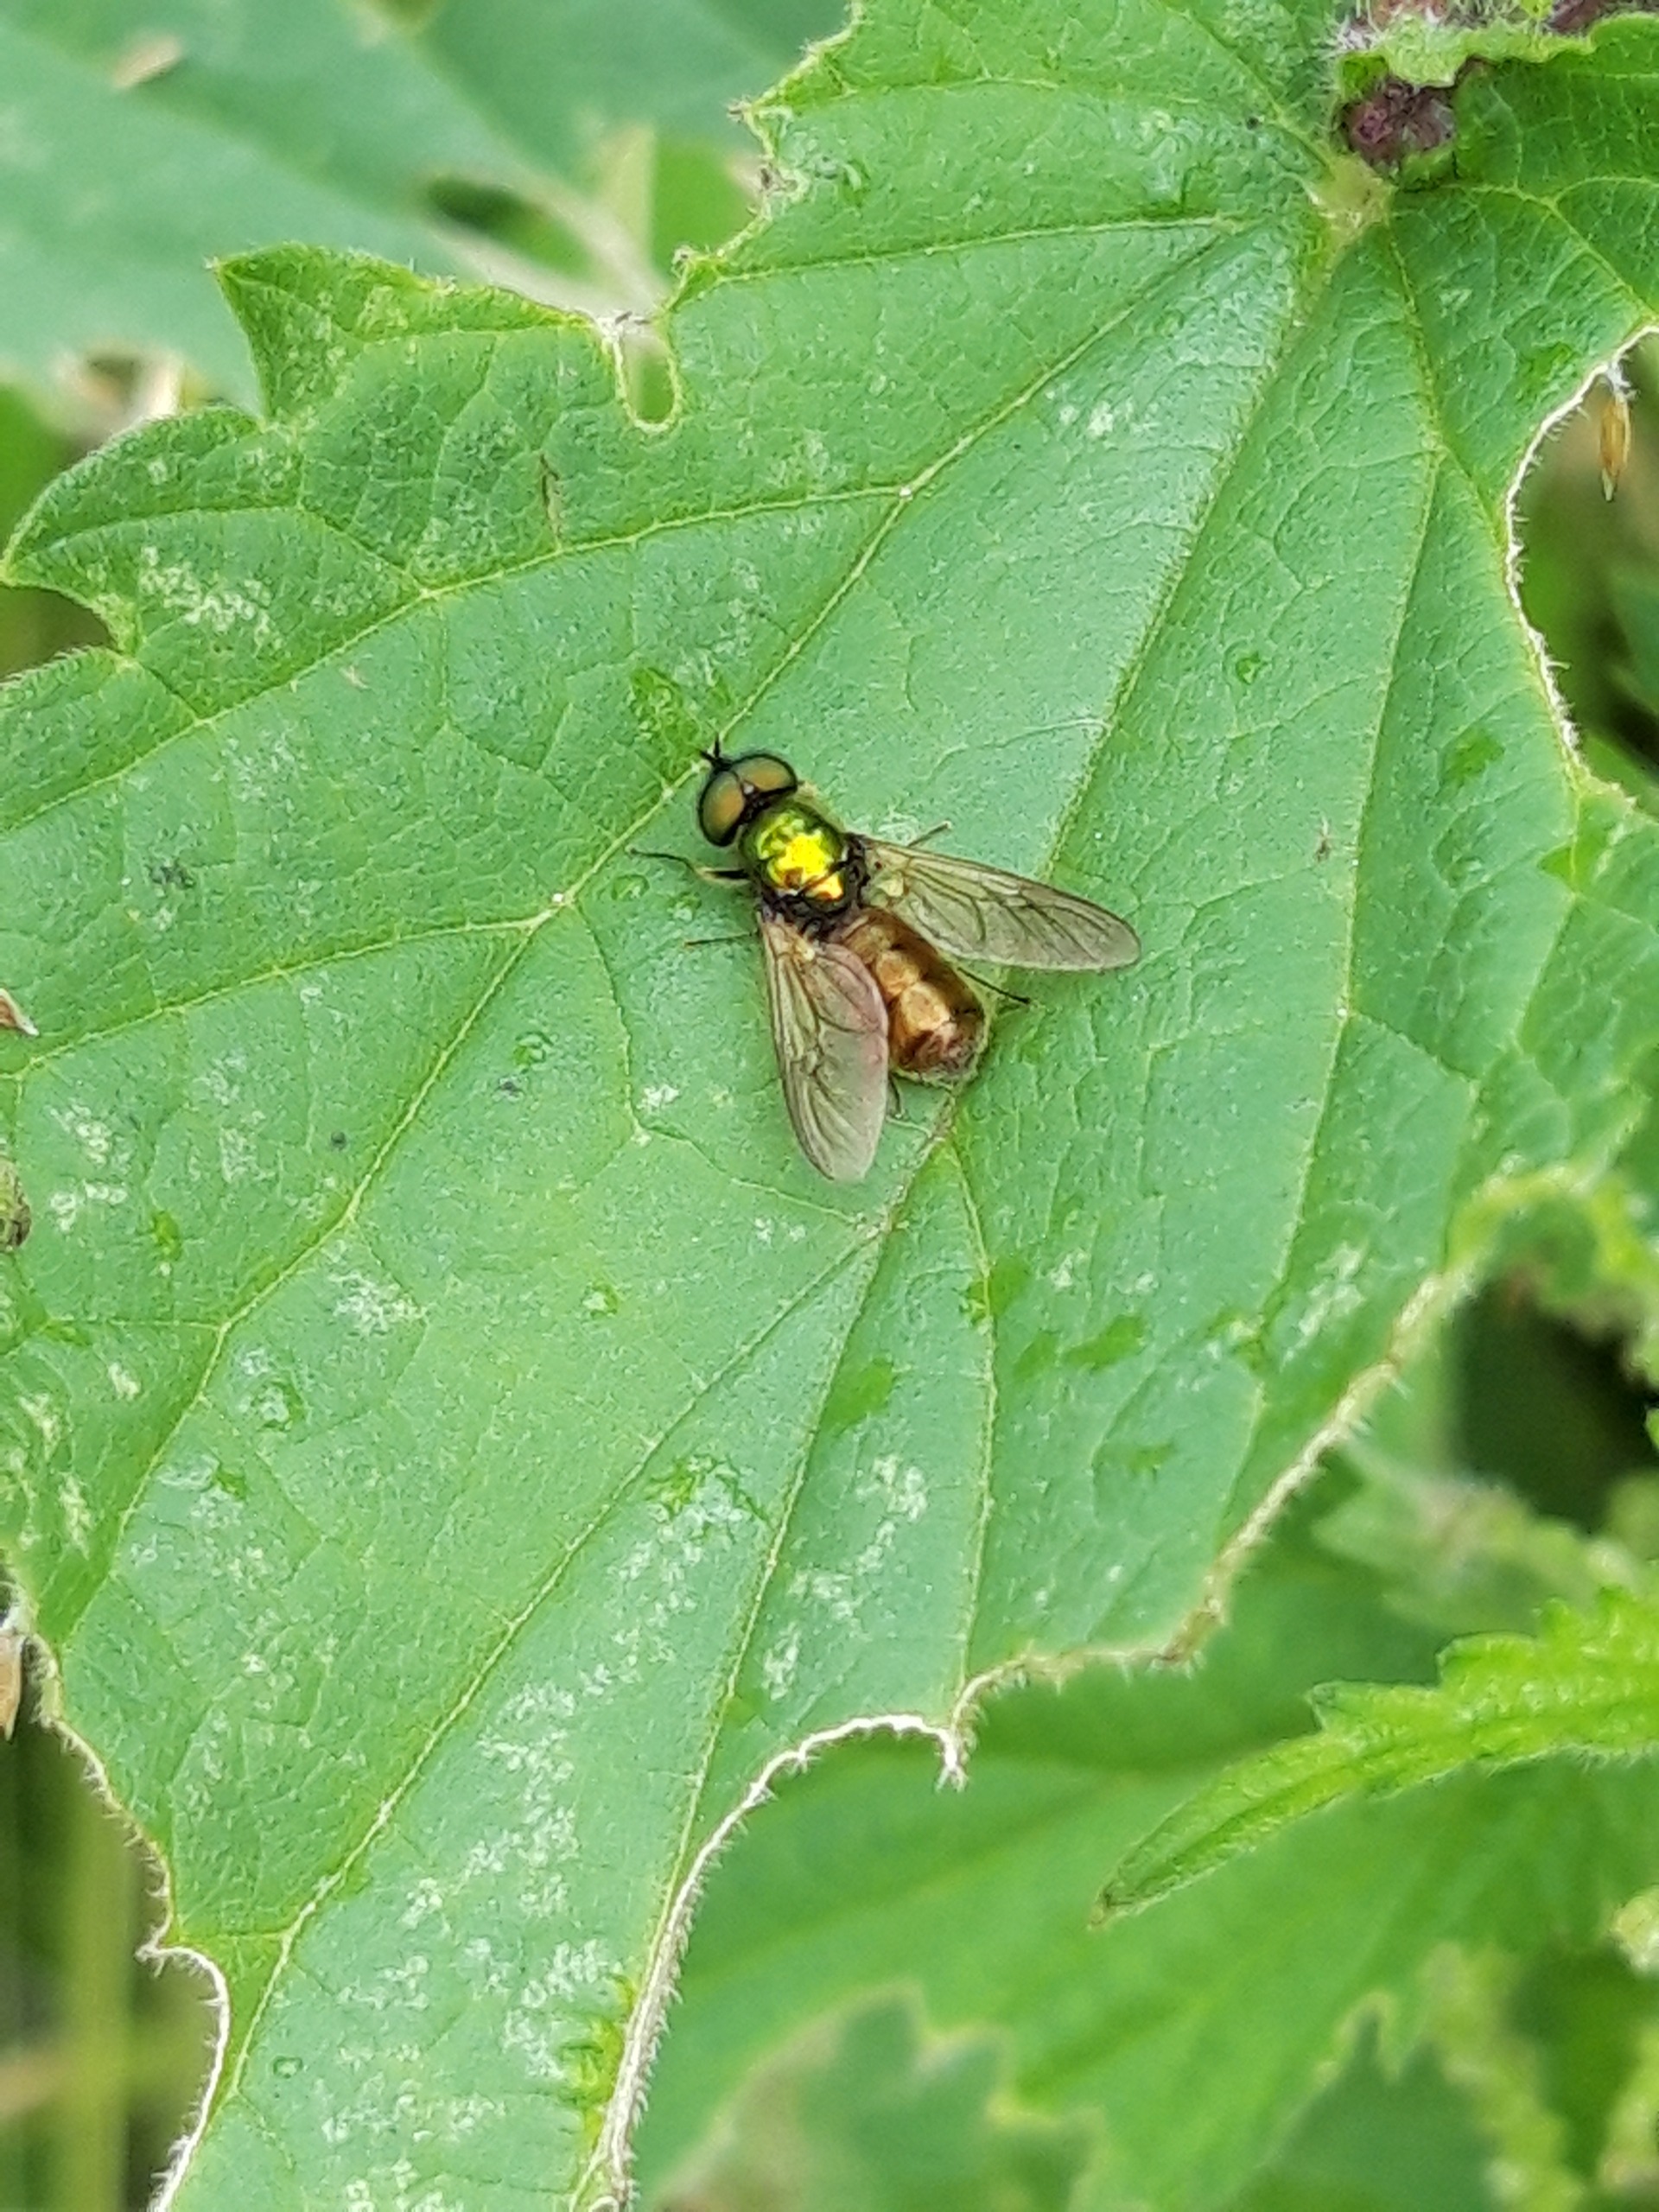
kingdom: Animalia
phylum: Arthropoda
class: Insecta
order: Diptera
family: Stratiomyidae
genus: Chloromyia
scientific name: Chloromyia formosa
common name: Grøn våbenflue
